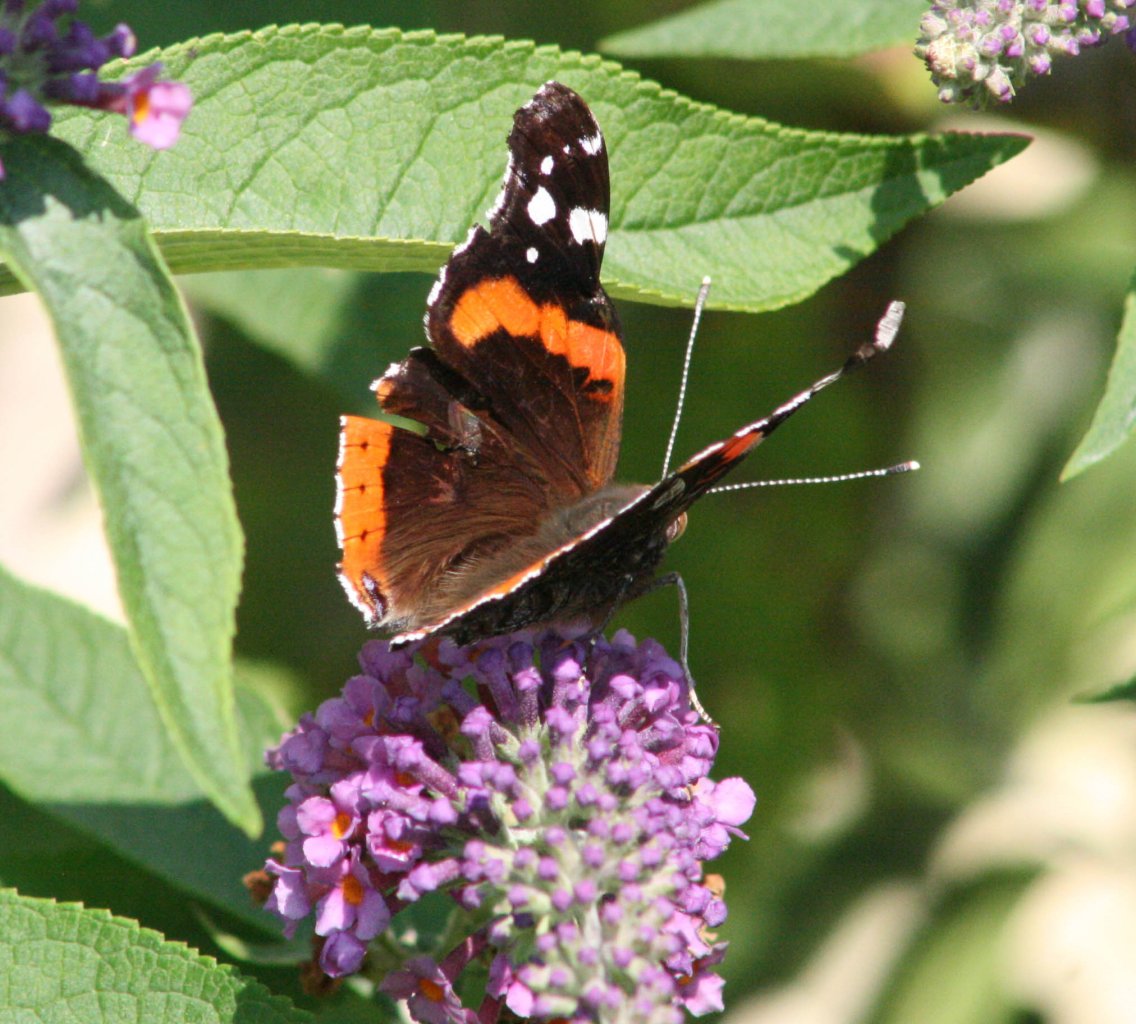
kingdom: Animalia
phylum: Arthropoda
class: Insecta
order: Lepidoptera
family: Nymphalidae
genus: Vanessa
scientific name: Vanessa atalanta
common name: Red Admiral
